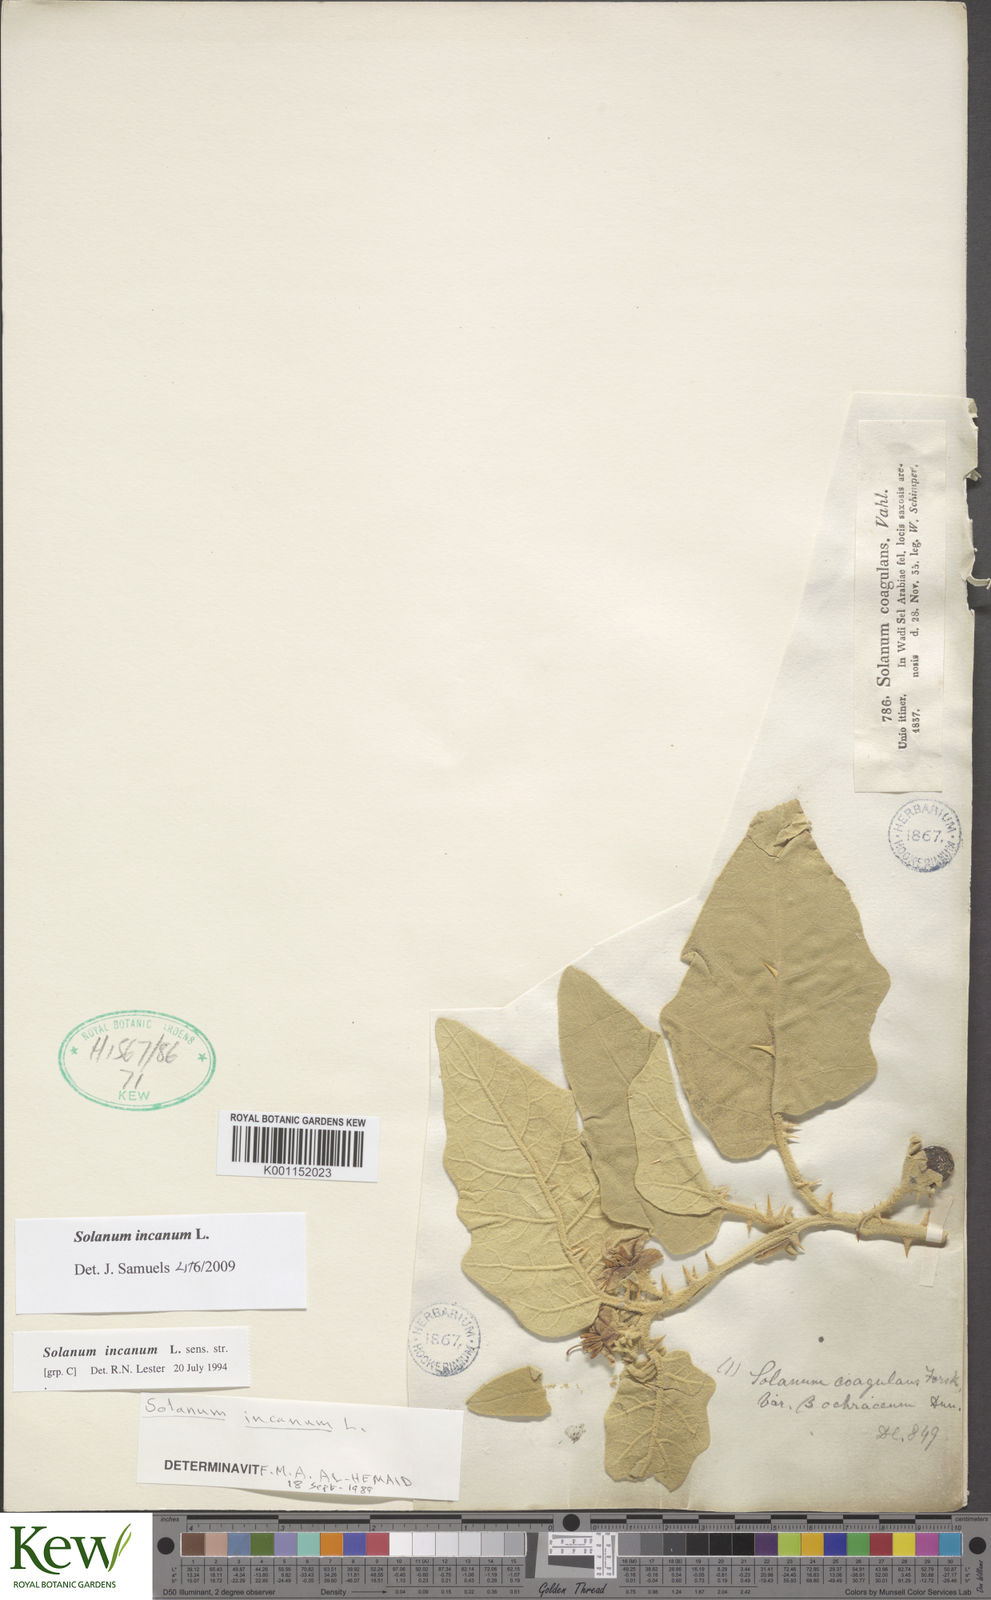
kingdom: Plantae
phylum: Tracheophyta
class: Magnoliopsida
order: Solanales
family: Solanaceae
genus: Solanum
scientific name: Solanum incanum
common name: Bitter apple
